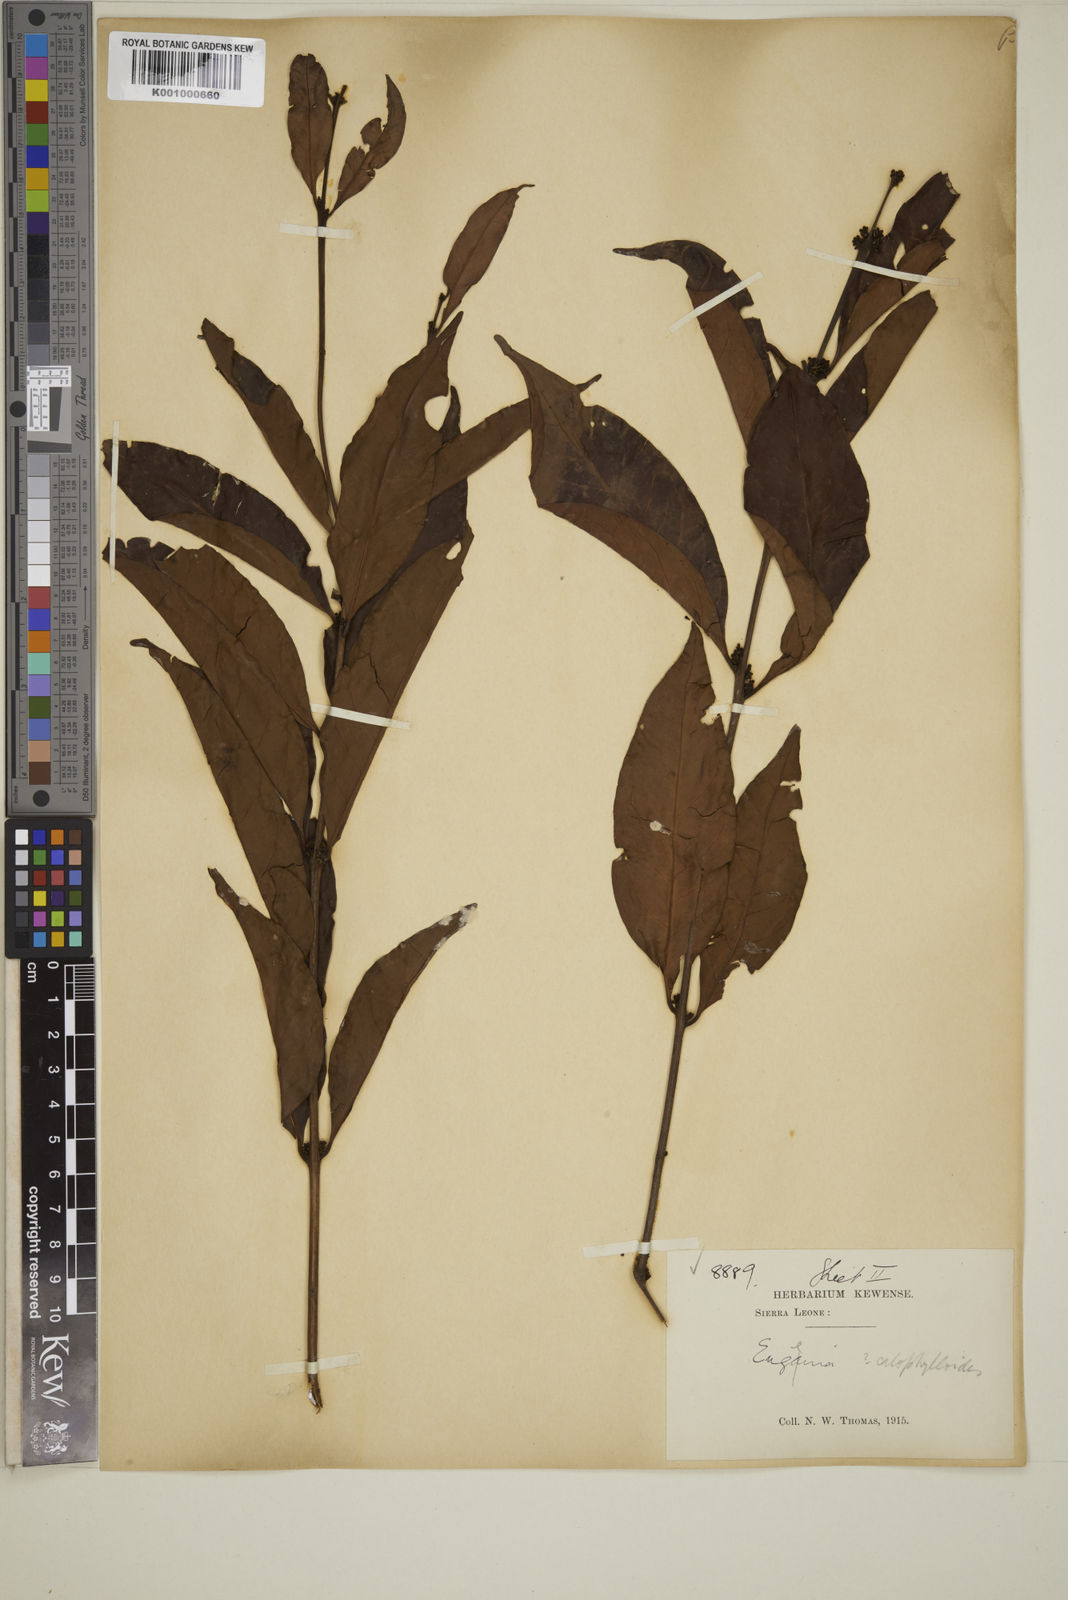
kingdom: Plantae
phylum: Tracheophyta
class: Magnoliopsida
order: Myrtales
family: Myrtaceae
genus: Eugenia
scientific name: Eugenia whytei
